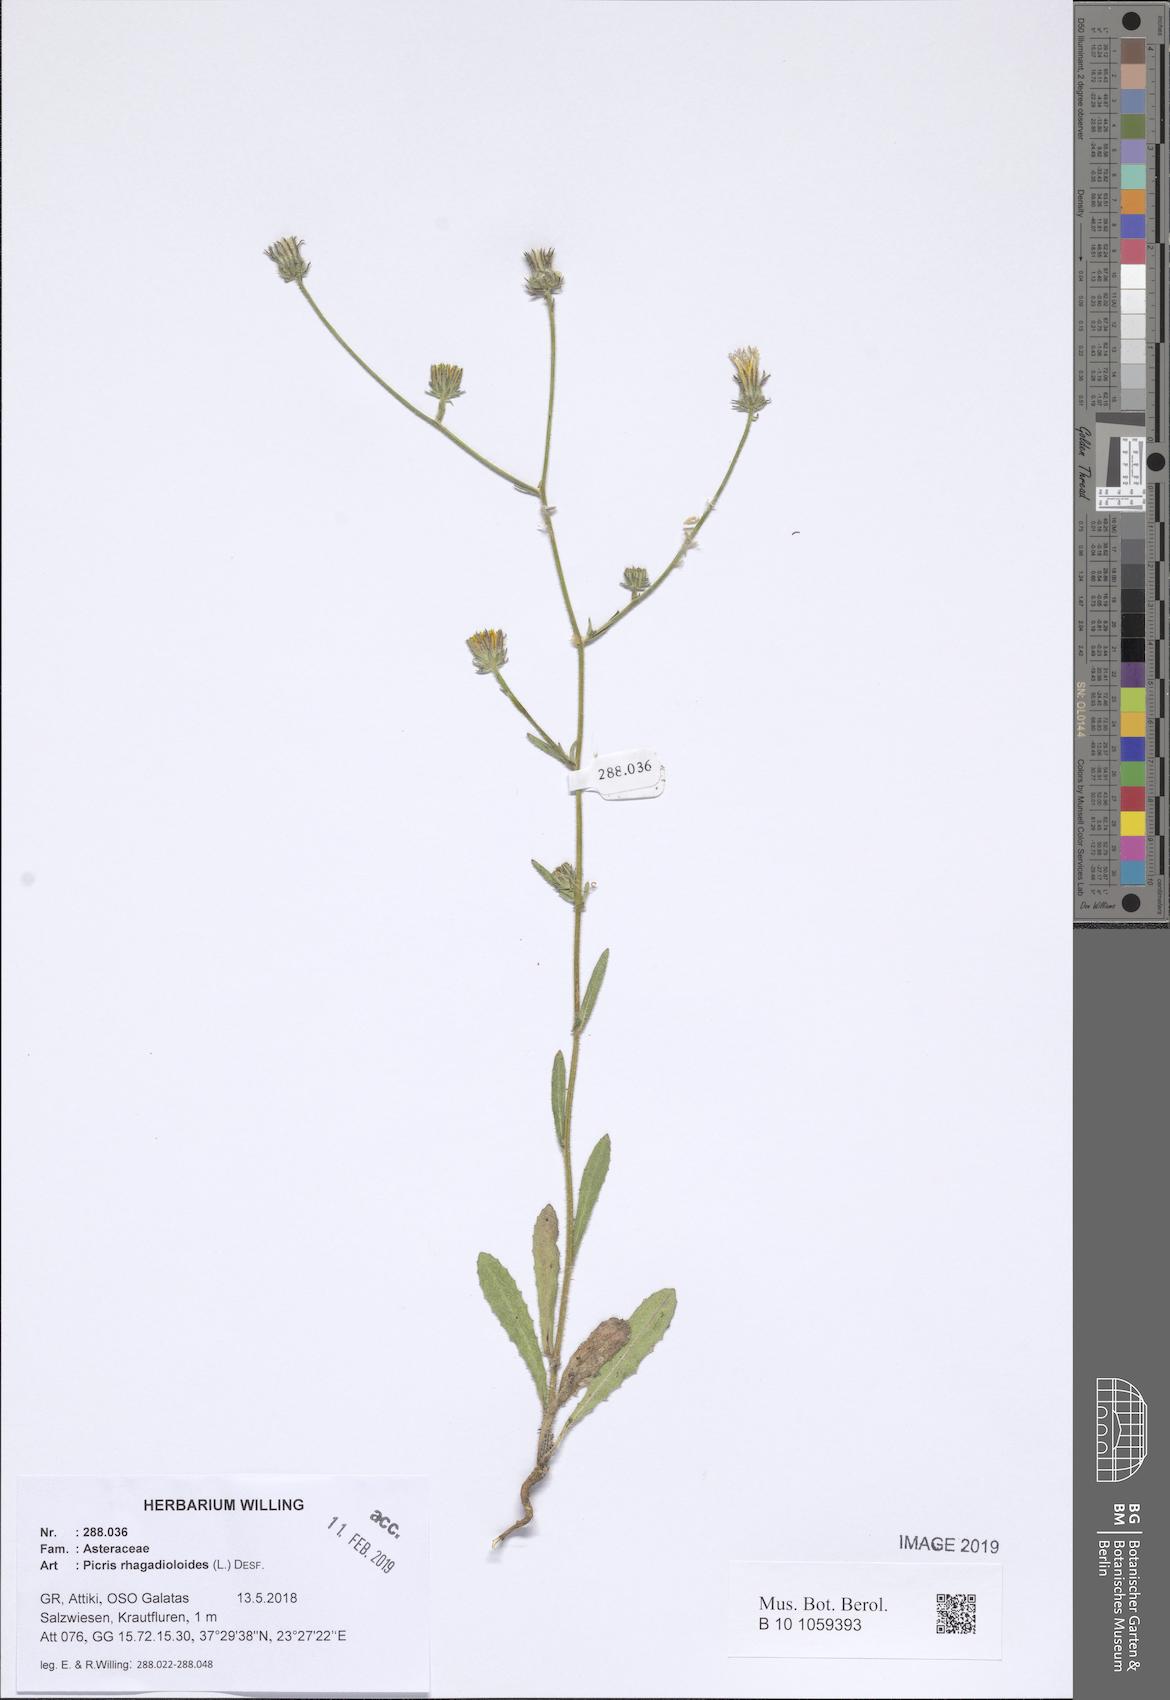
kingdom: Plantae
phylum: Tracheophyta
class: Magnoliopsida
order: Asterales
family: Asteraceae
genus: Picris
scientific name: Picris rhagadioloides
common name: Oxtongue
